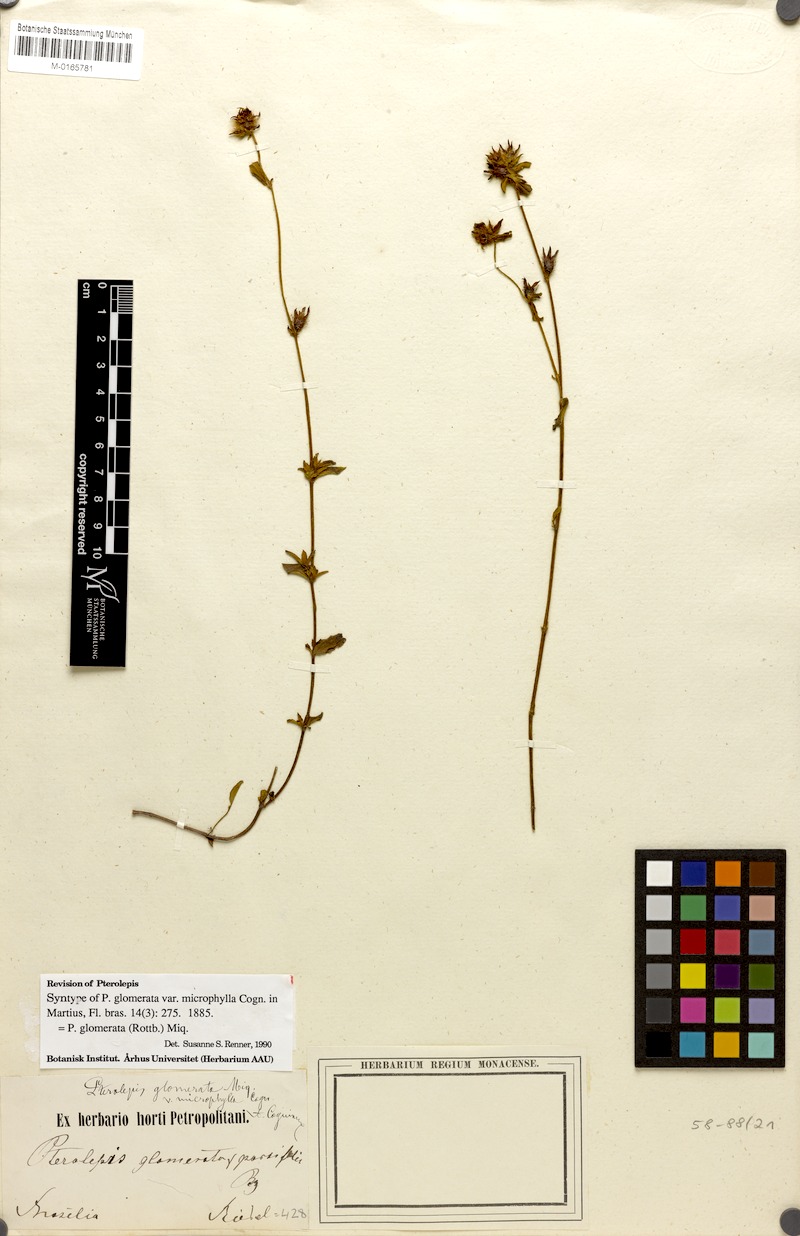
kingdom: Plantae
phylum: Tracheophyta
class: Magnoliopsida
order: Myrtales
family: Melastomataceae
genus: Pterolepis
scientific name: Pterolepis glomerata
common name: False meadowbeauty
